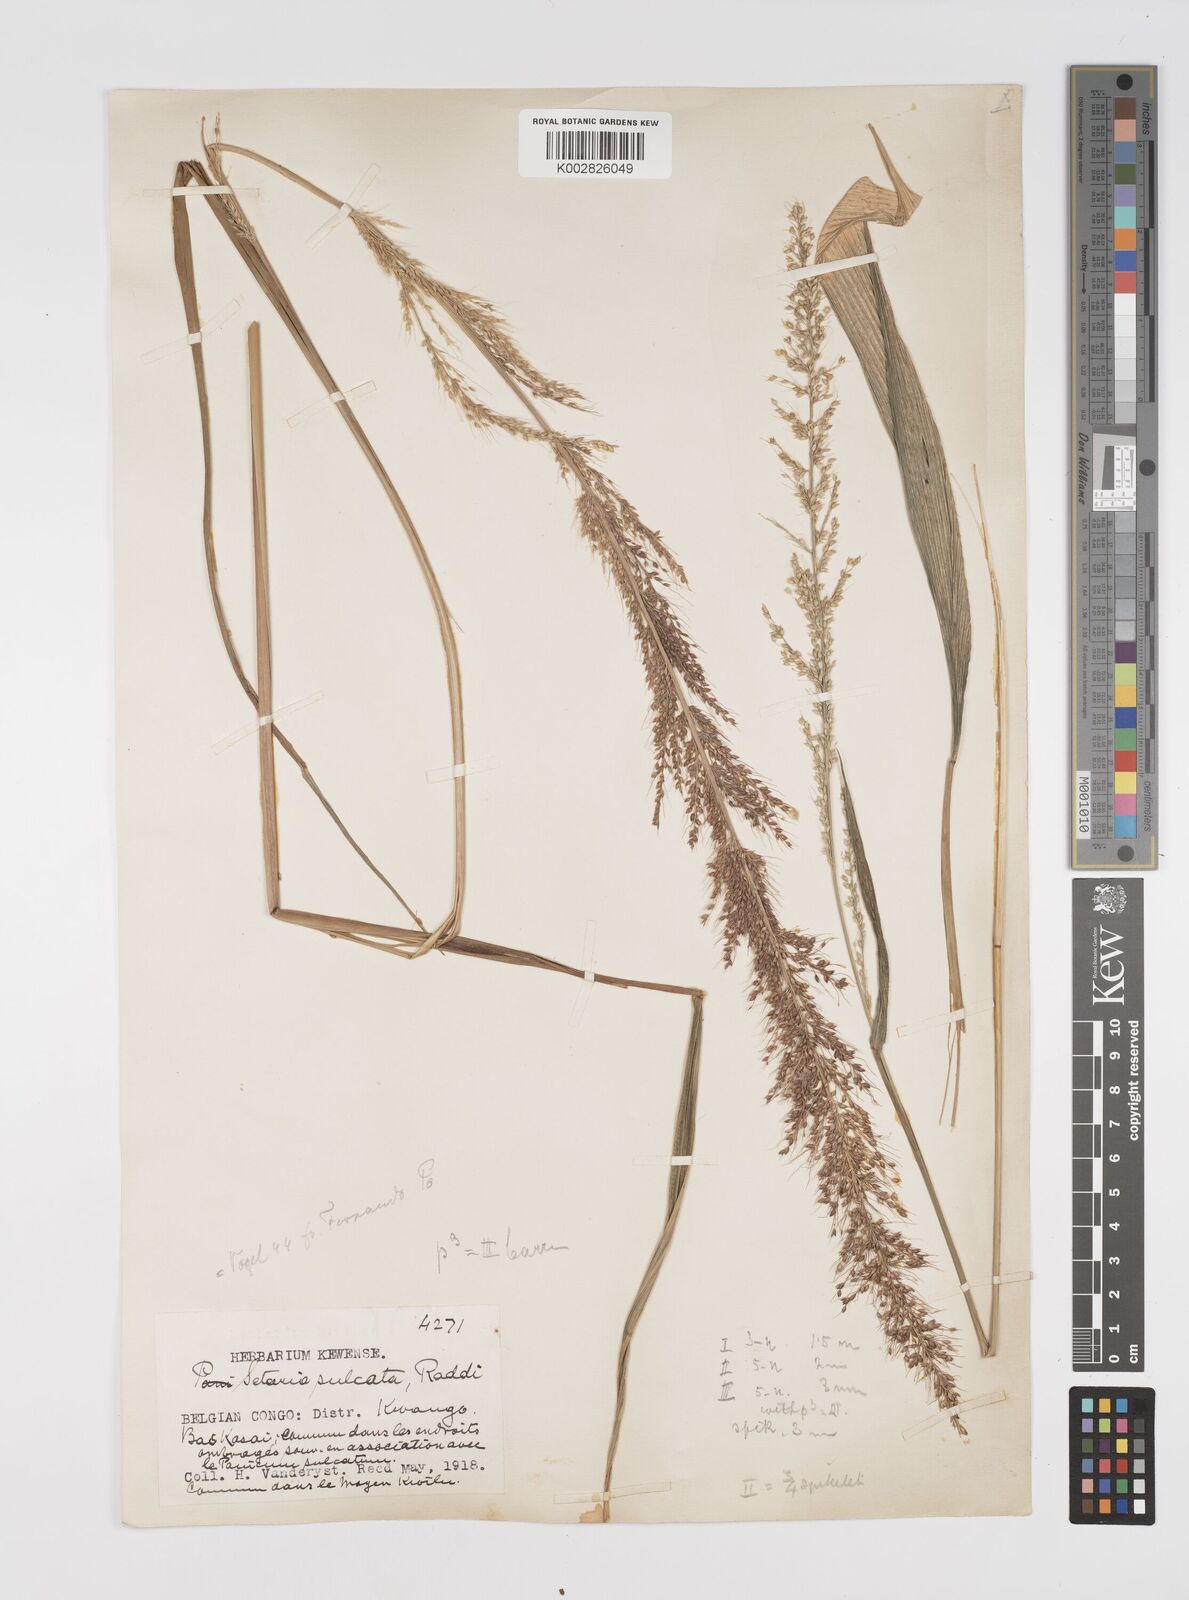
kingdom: Plantae
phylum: Tracheophyta
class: Liliopsida
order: Poales
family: Poaceae
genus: Setaria
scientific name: Setaria megaphylla
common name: Bigleaf bristlegrass
